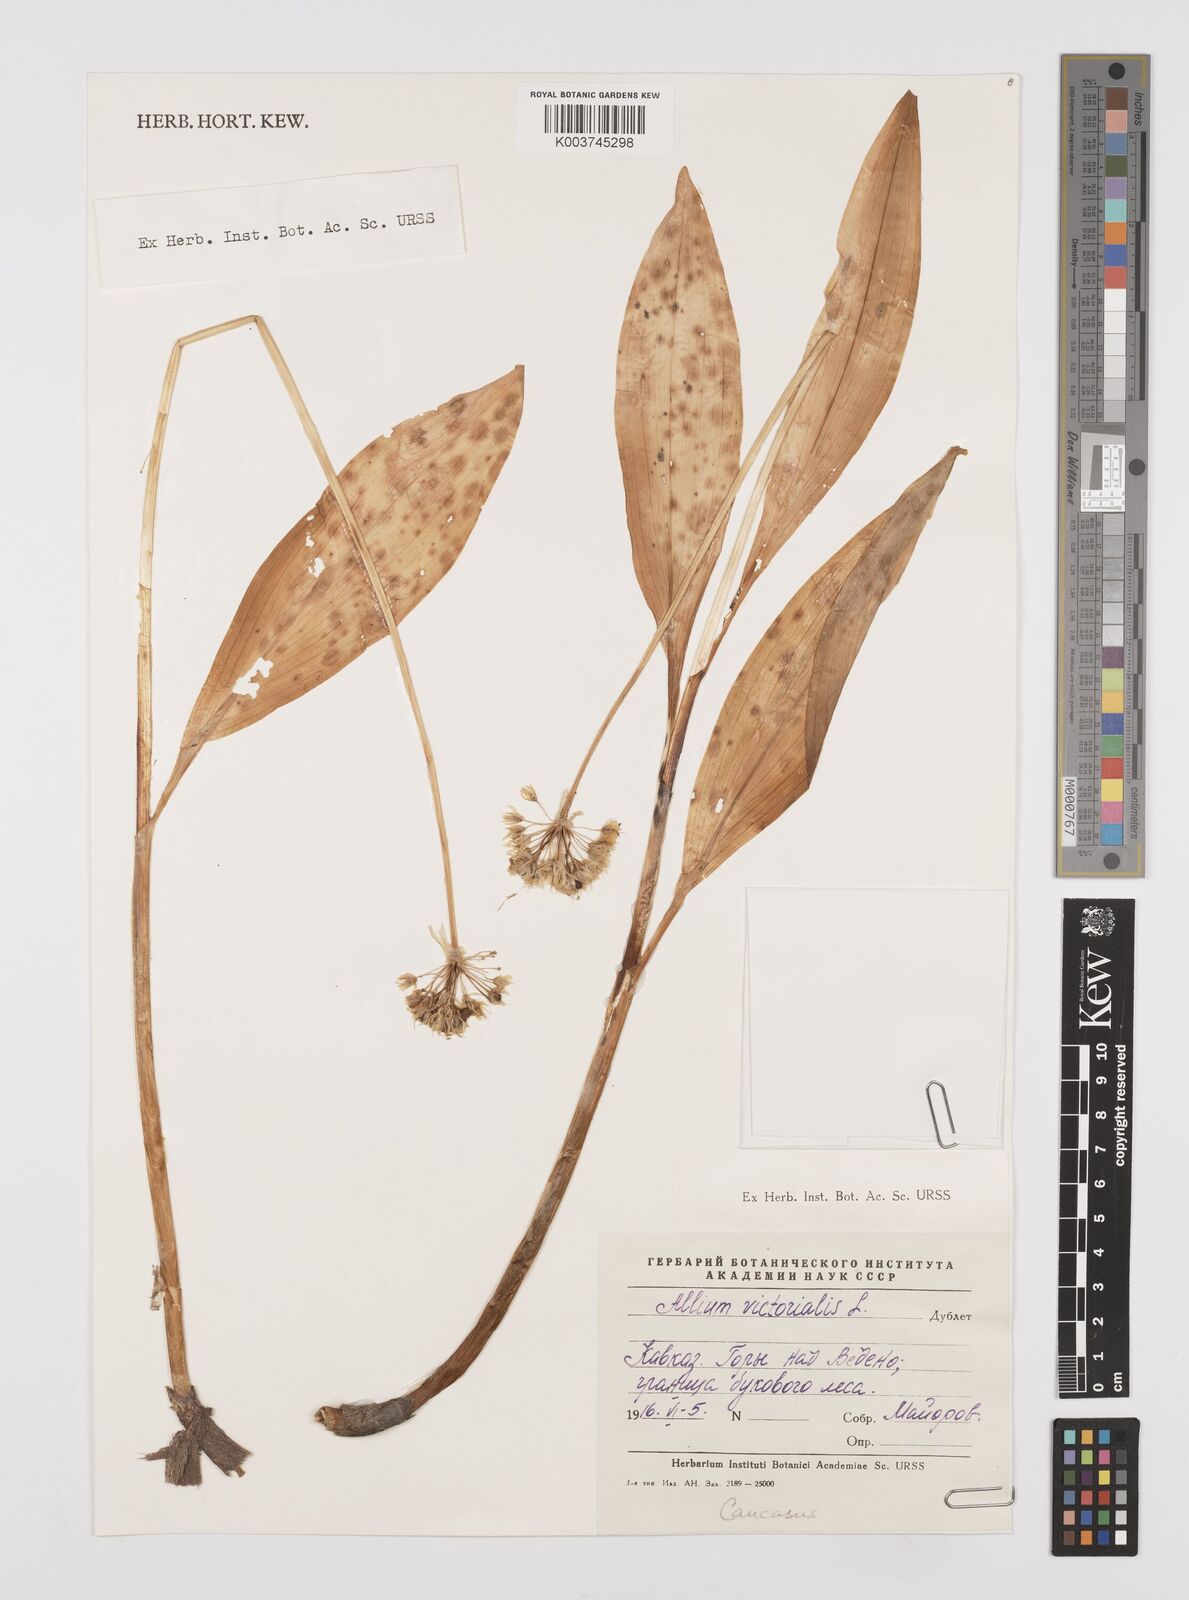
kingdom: Plantae
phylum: Tracheophyta
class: Liliopsida
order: Asparagales
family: Amaryllidaceae
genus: Allium
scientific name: Allium victorialis
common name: Alpine leek
